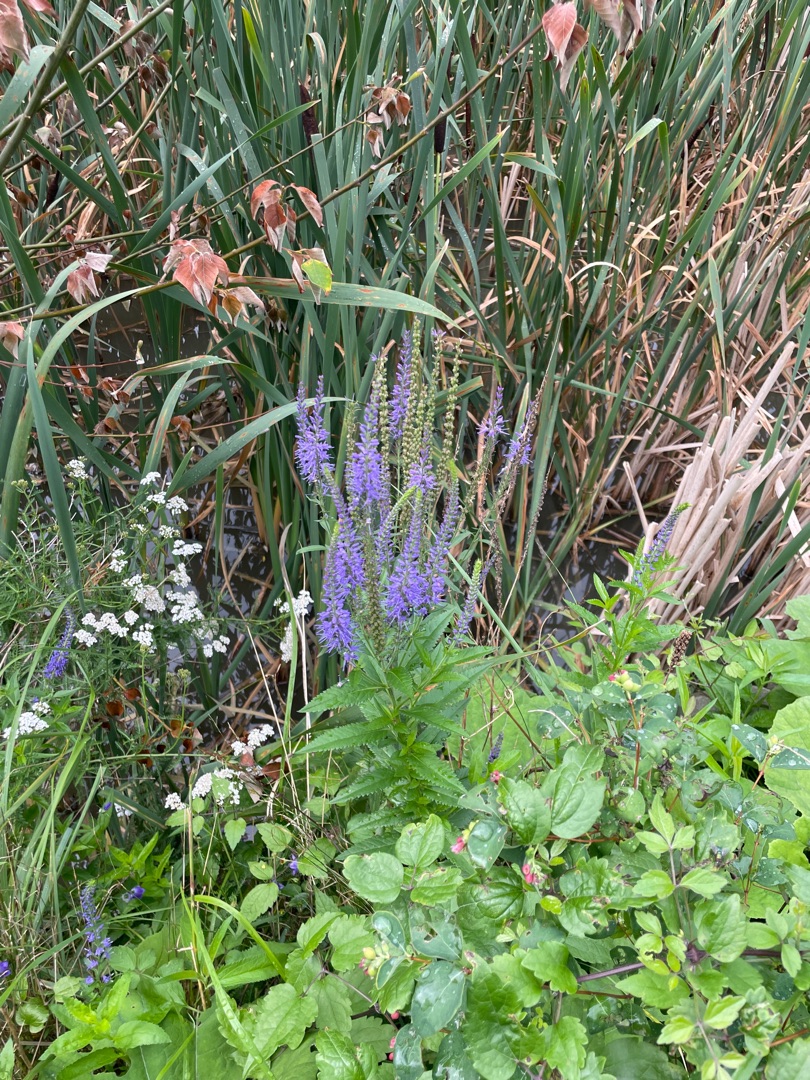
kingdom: Plantae
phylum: Tracheophyta
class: Magnoliopsida
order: Lamiales
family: Plantaginaceae
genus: Veronica
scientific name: Veronica
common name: Ærenprisslægten
